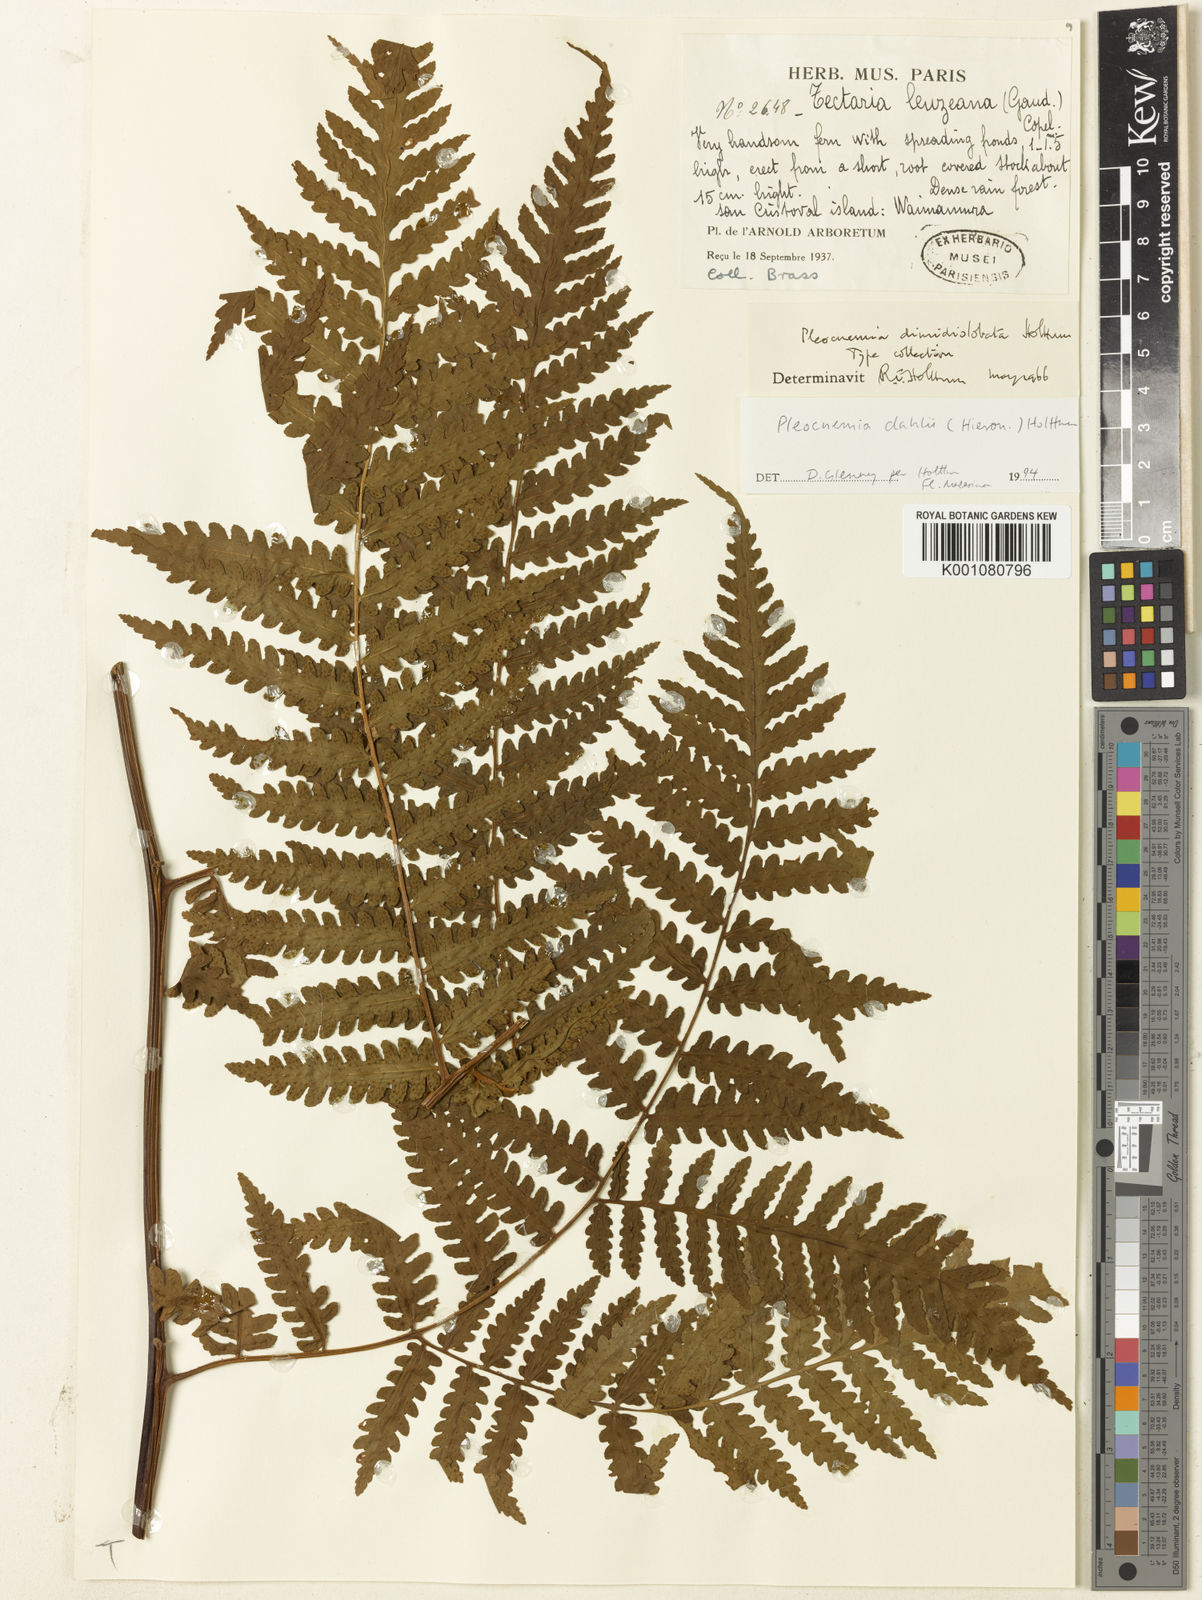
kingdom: Plantae
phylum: Tracheophyta
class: Polypodiopsida
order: Polypodiales
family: Dryopteridaceae
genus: Pleocnemia
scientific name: Pleocnemia dahlii
